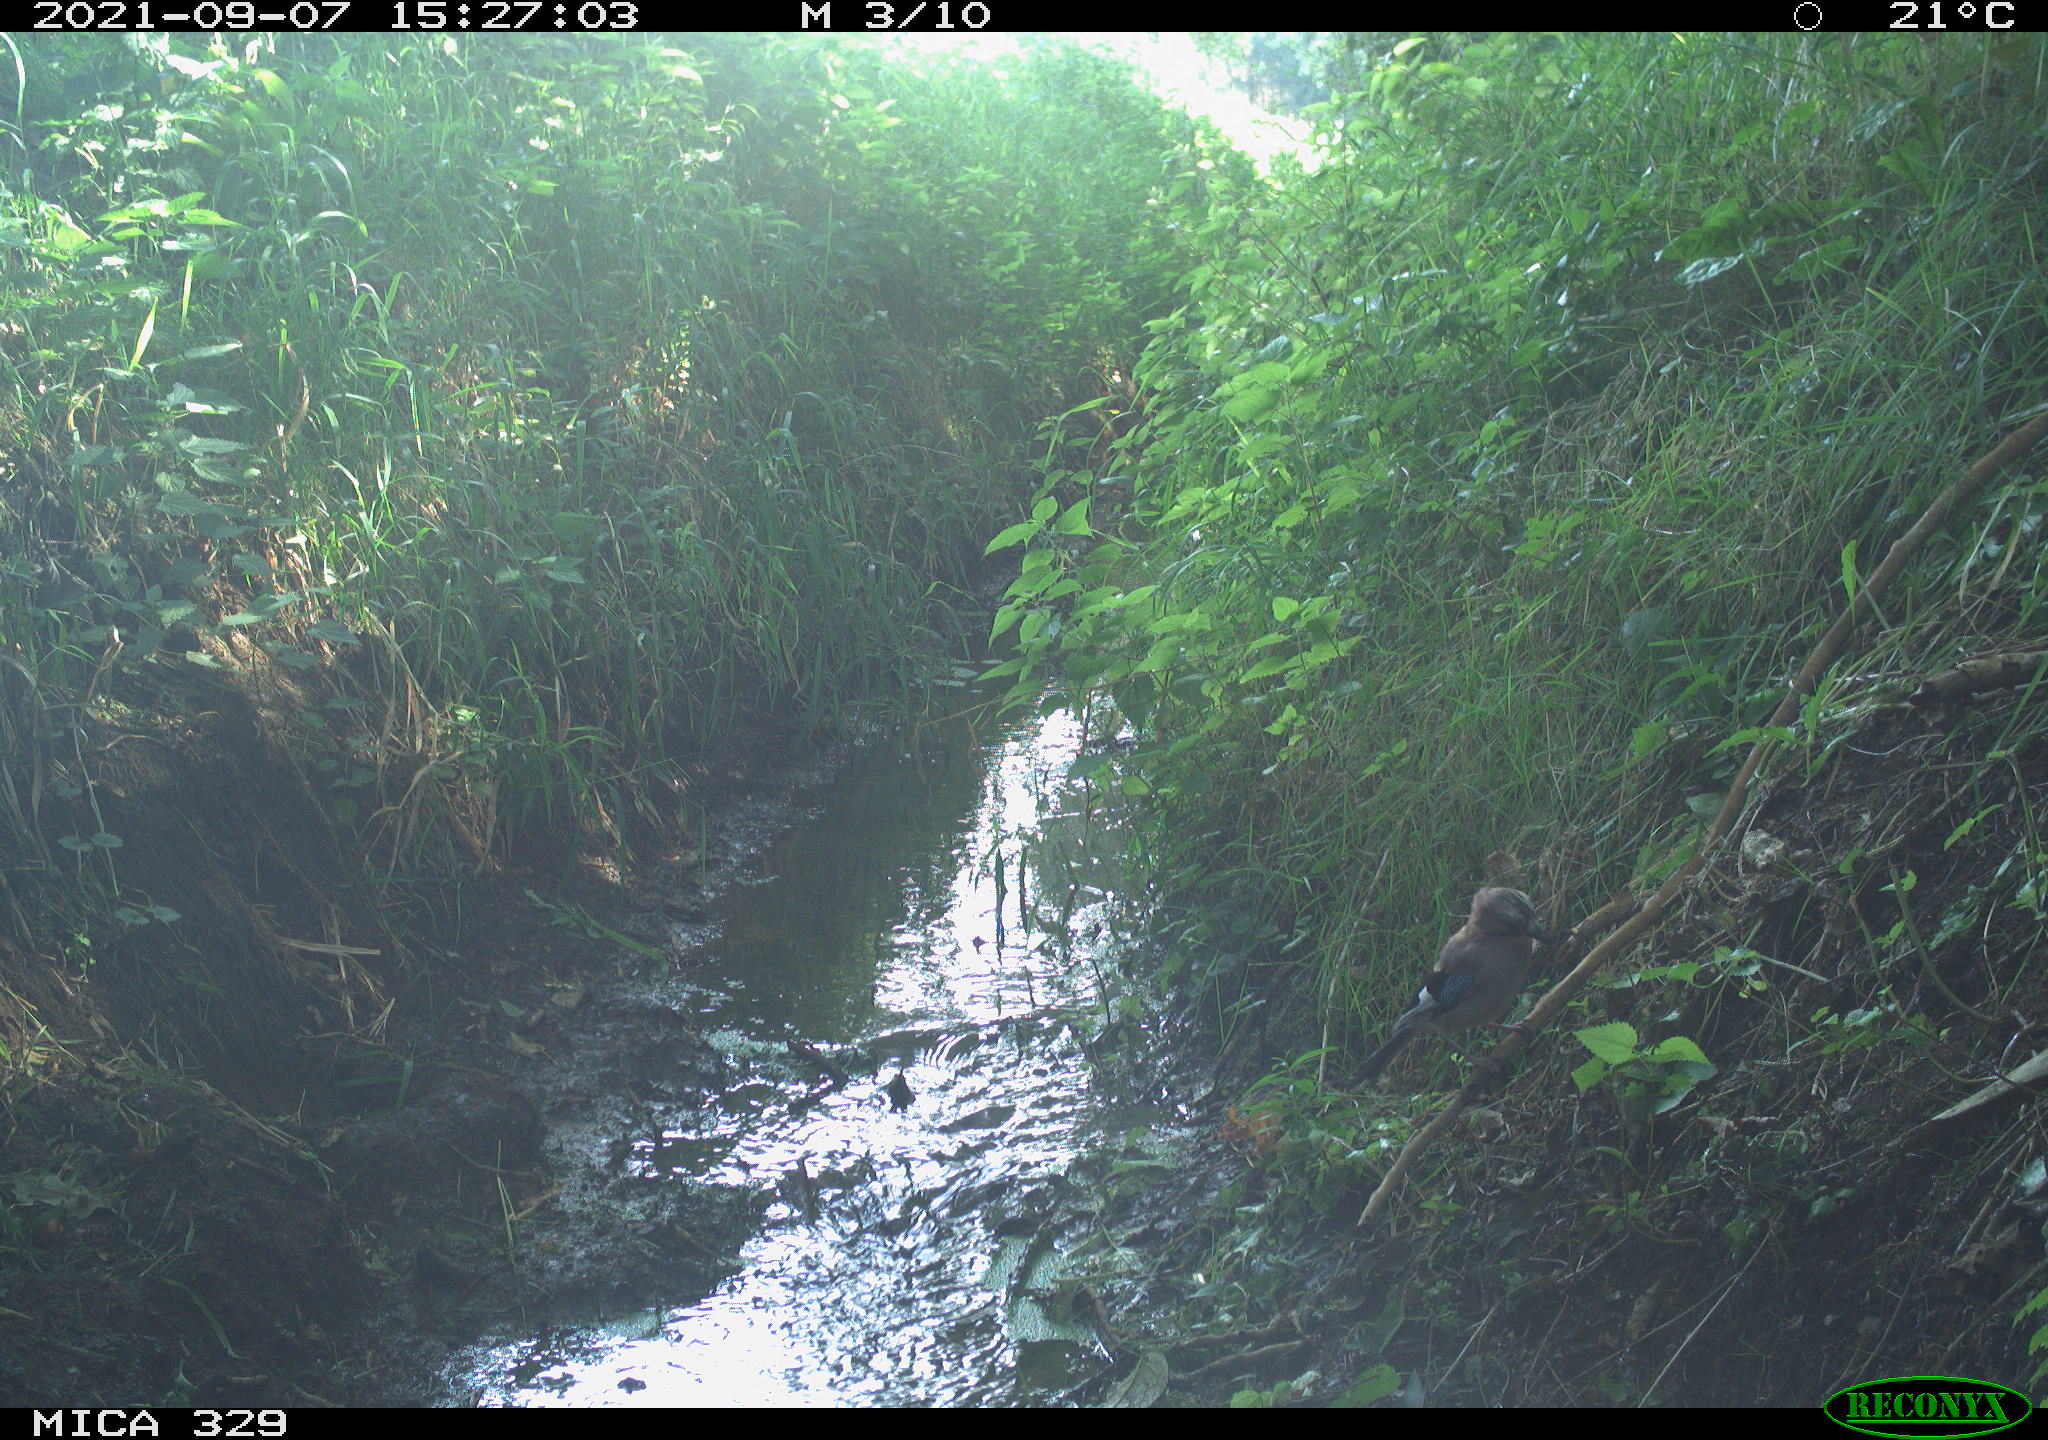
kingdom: Animalia
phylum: Chordata
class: Aves
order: Passeriformes
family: Corvidae
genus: Garrulus
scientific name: Garrulus glandarius
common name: Eurasian jay
